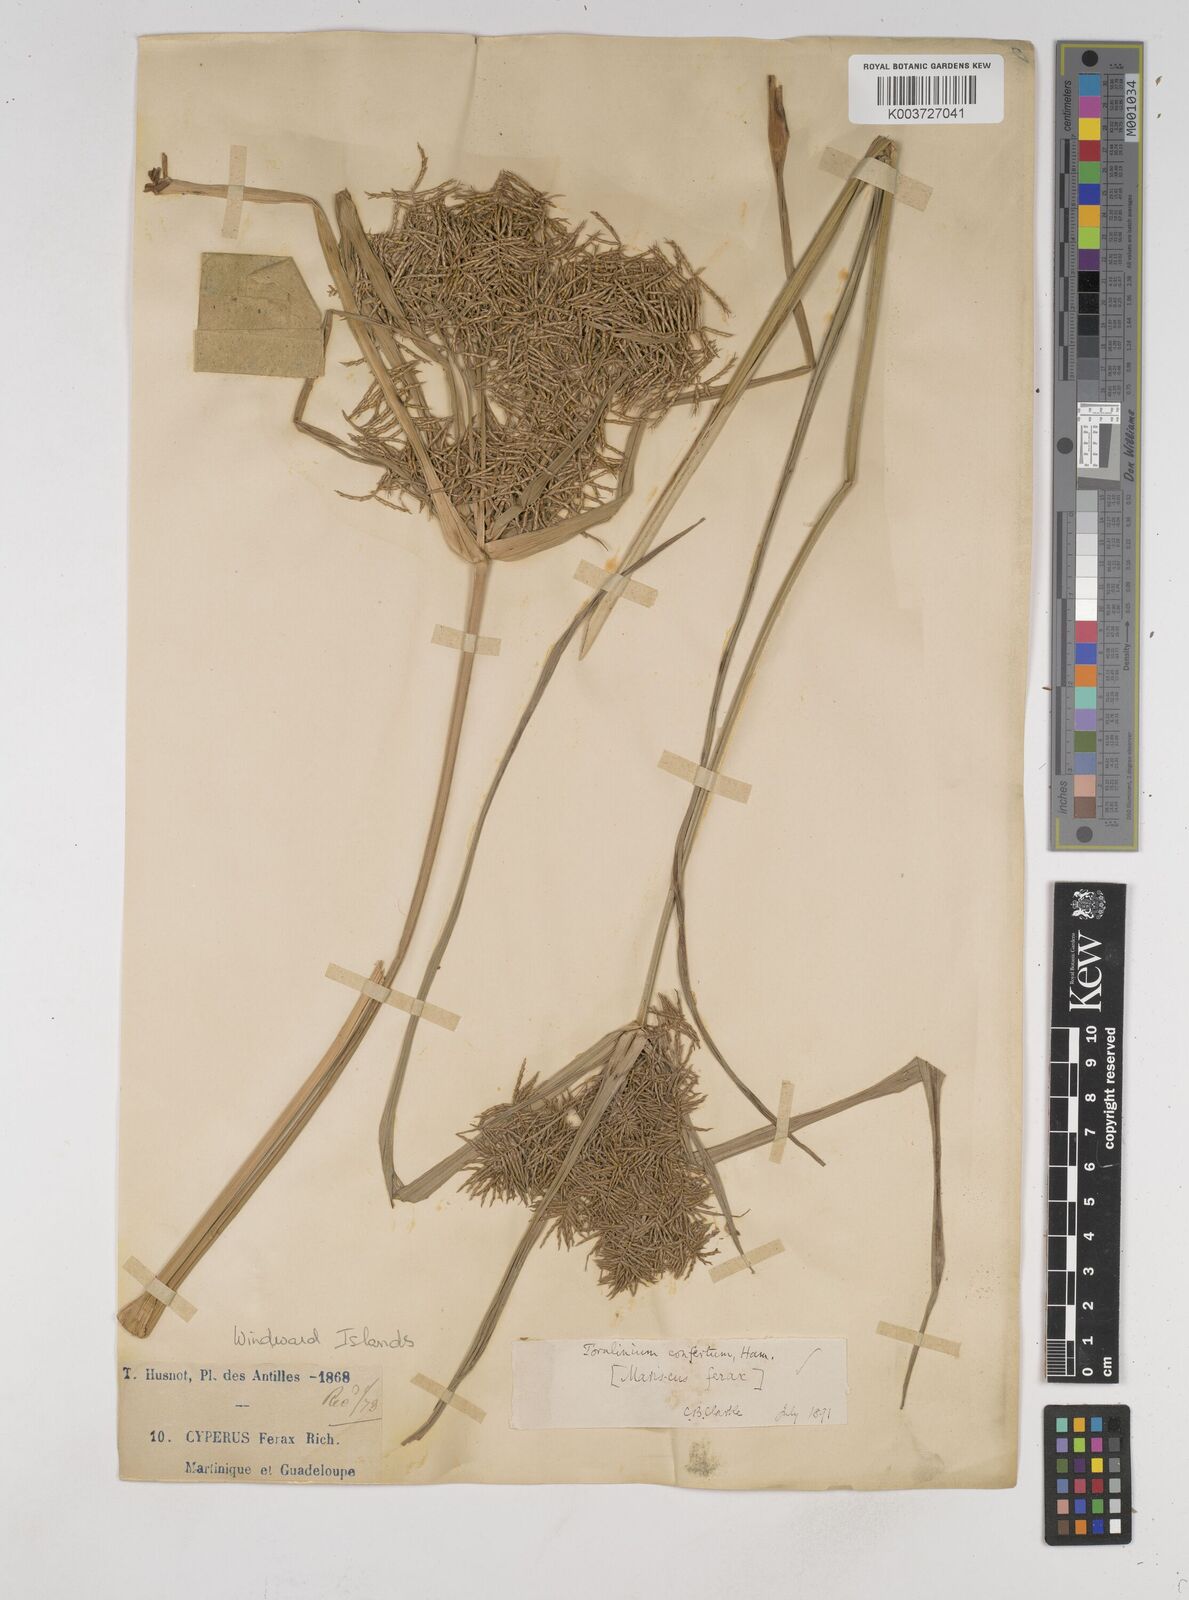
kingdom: Plantae
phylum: Tracheophyta
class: Liliopsida
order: Poales
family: Cyperaceae
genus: Cyperus
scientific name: Cyperus odoratus
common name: Fragrant flatsedge
